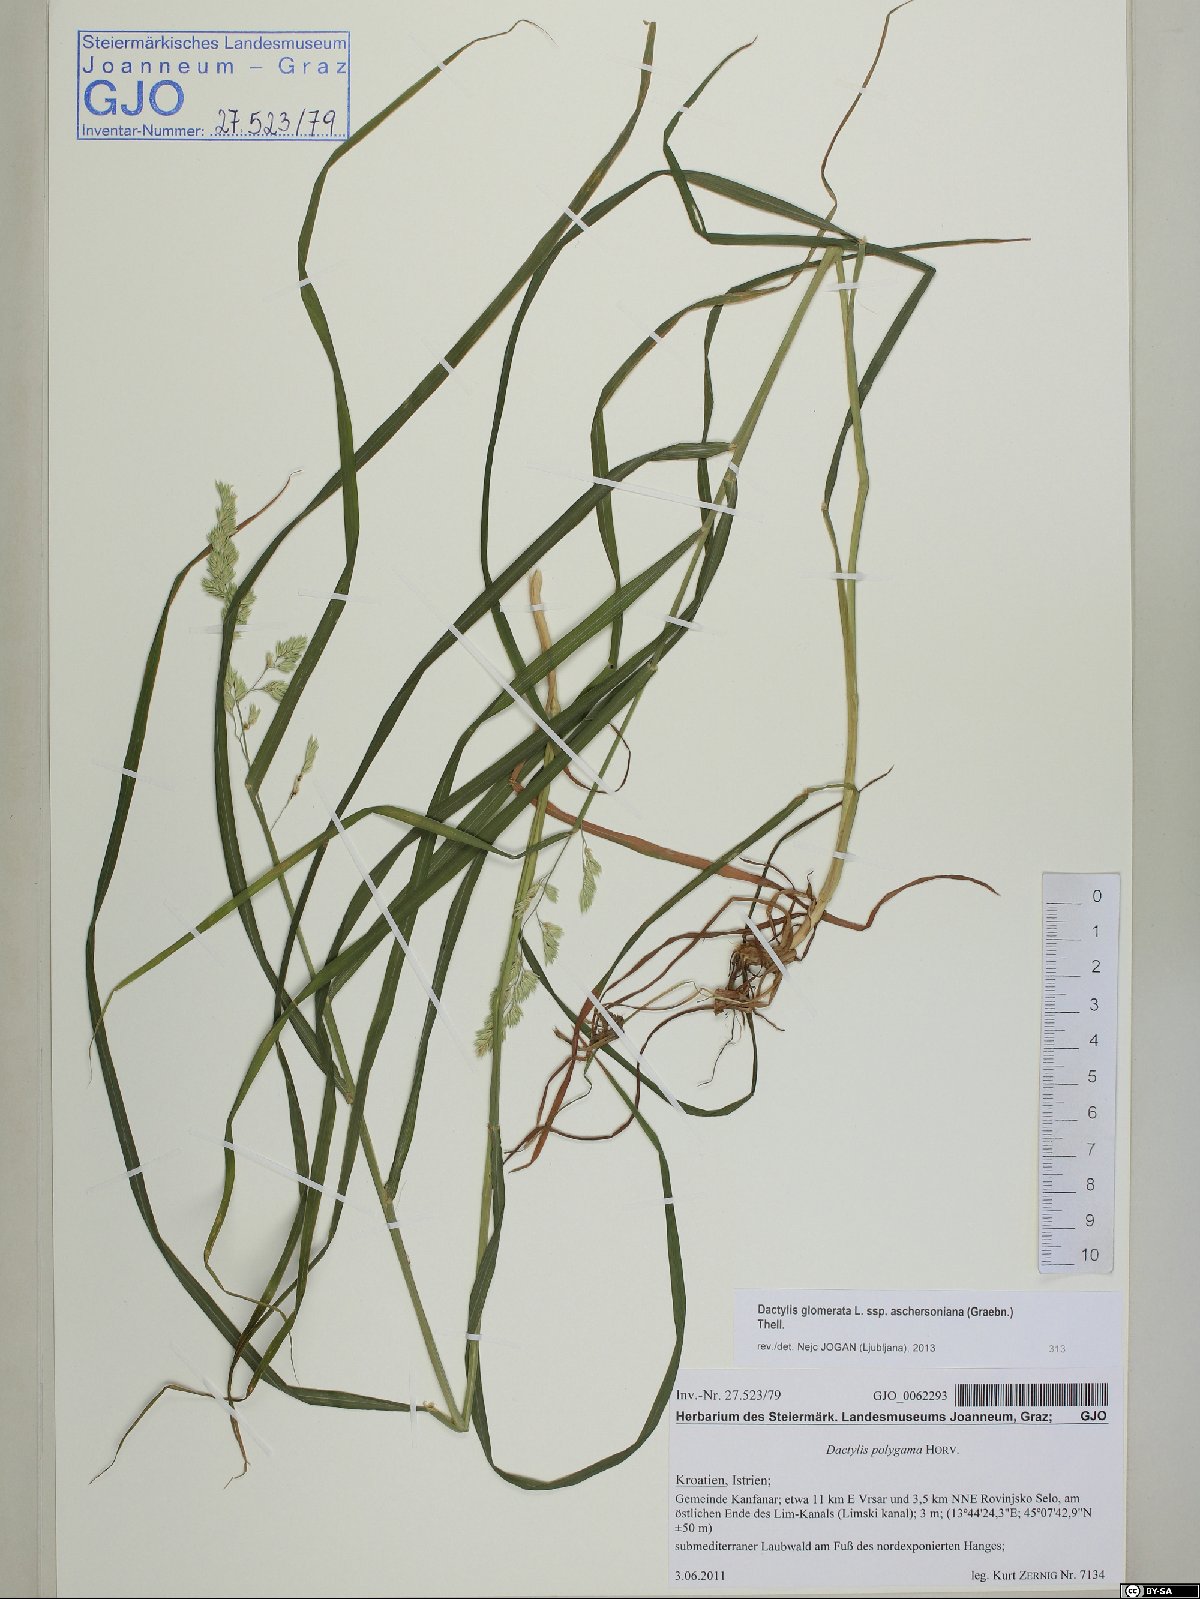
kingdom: Plantae
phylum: Tracheophyta
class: Liliopsida
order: Poales
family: Poaceae
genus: Dactylis
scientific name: Dactylis glomerata
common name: Orchardgrass
